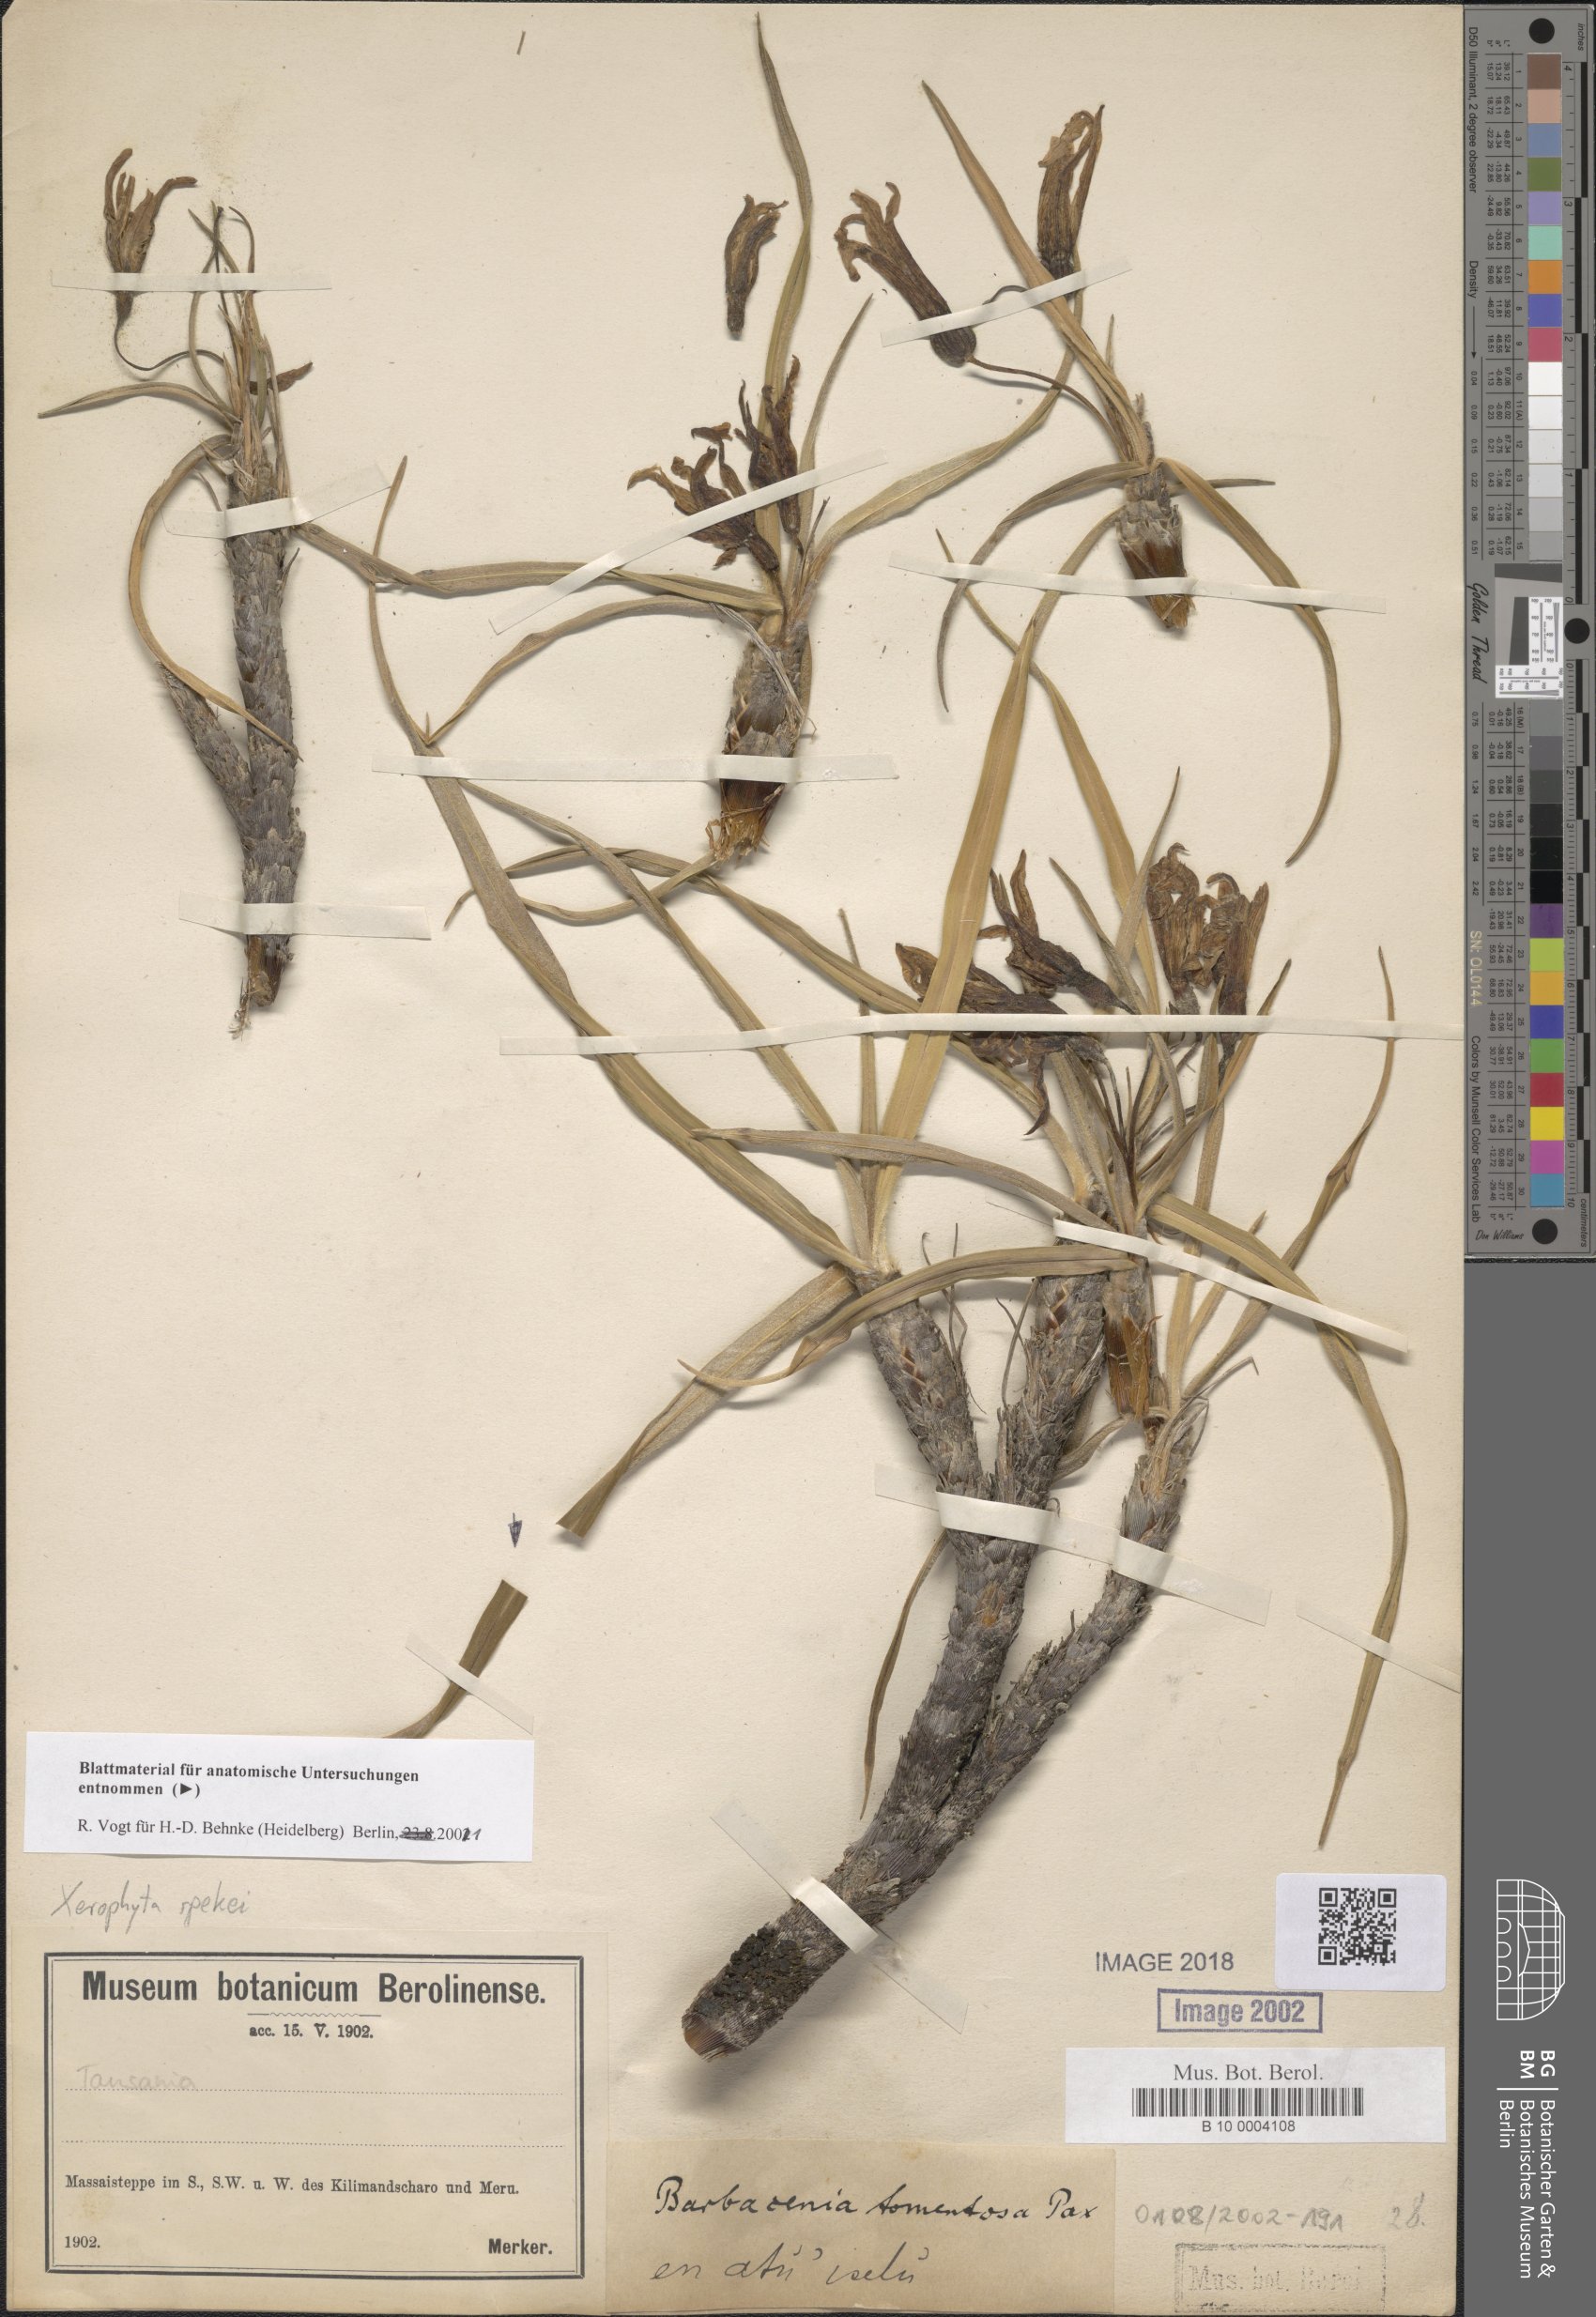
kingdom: Plantae
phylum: Tracheophyta
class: Liliopsida
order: Pandanales
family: Velloziaceae
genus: Xerophyta
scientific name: Xerophyta spekei
